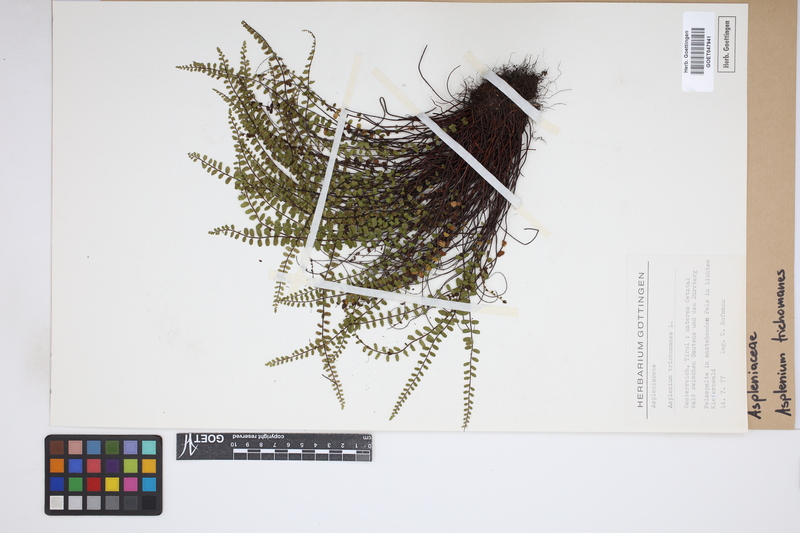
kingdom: Plantae
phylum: Tracheophyta
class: Polypodiopsida
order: Polypodiales
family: Aspleniaceae
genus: Asplenium
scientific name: Asplenium trichomanes
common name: Maidenhair spleenwort
